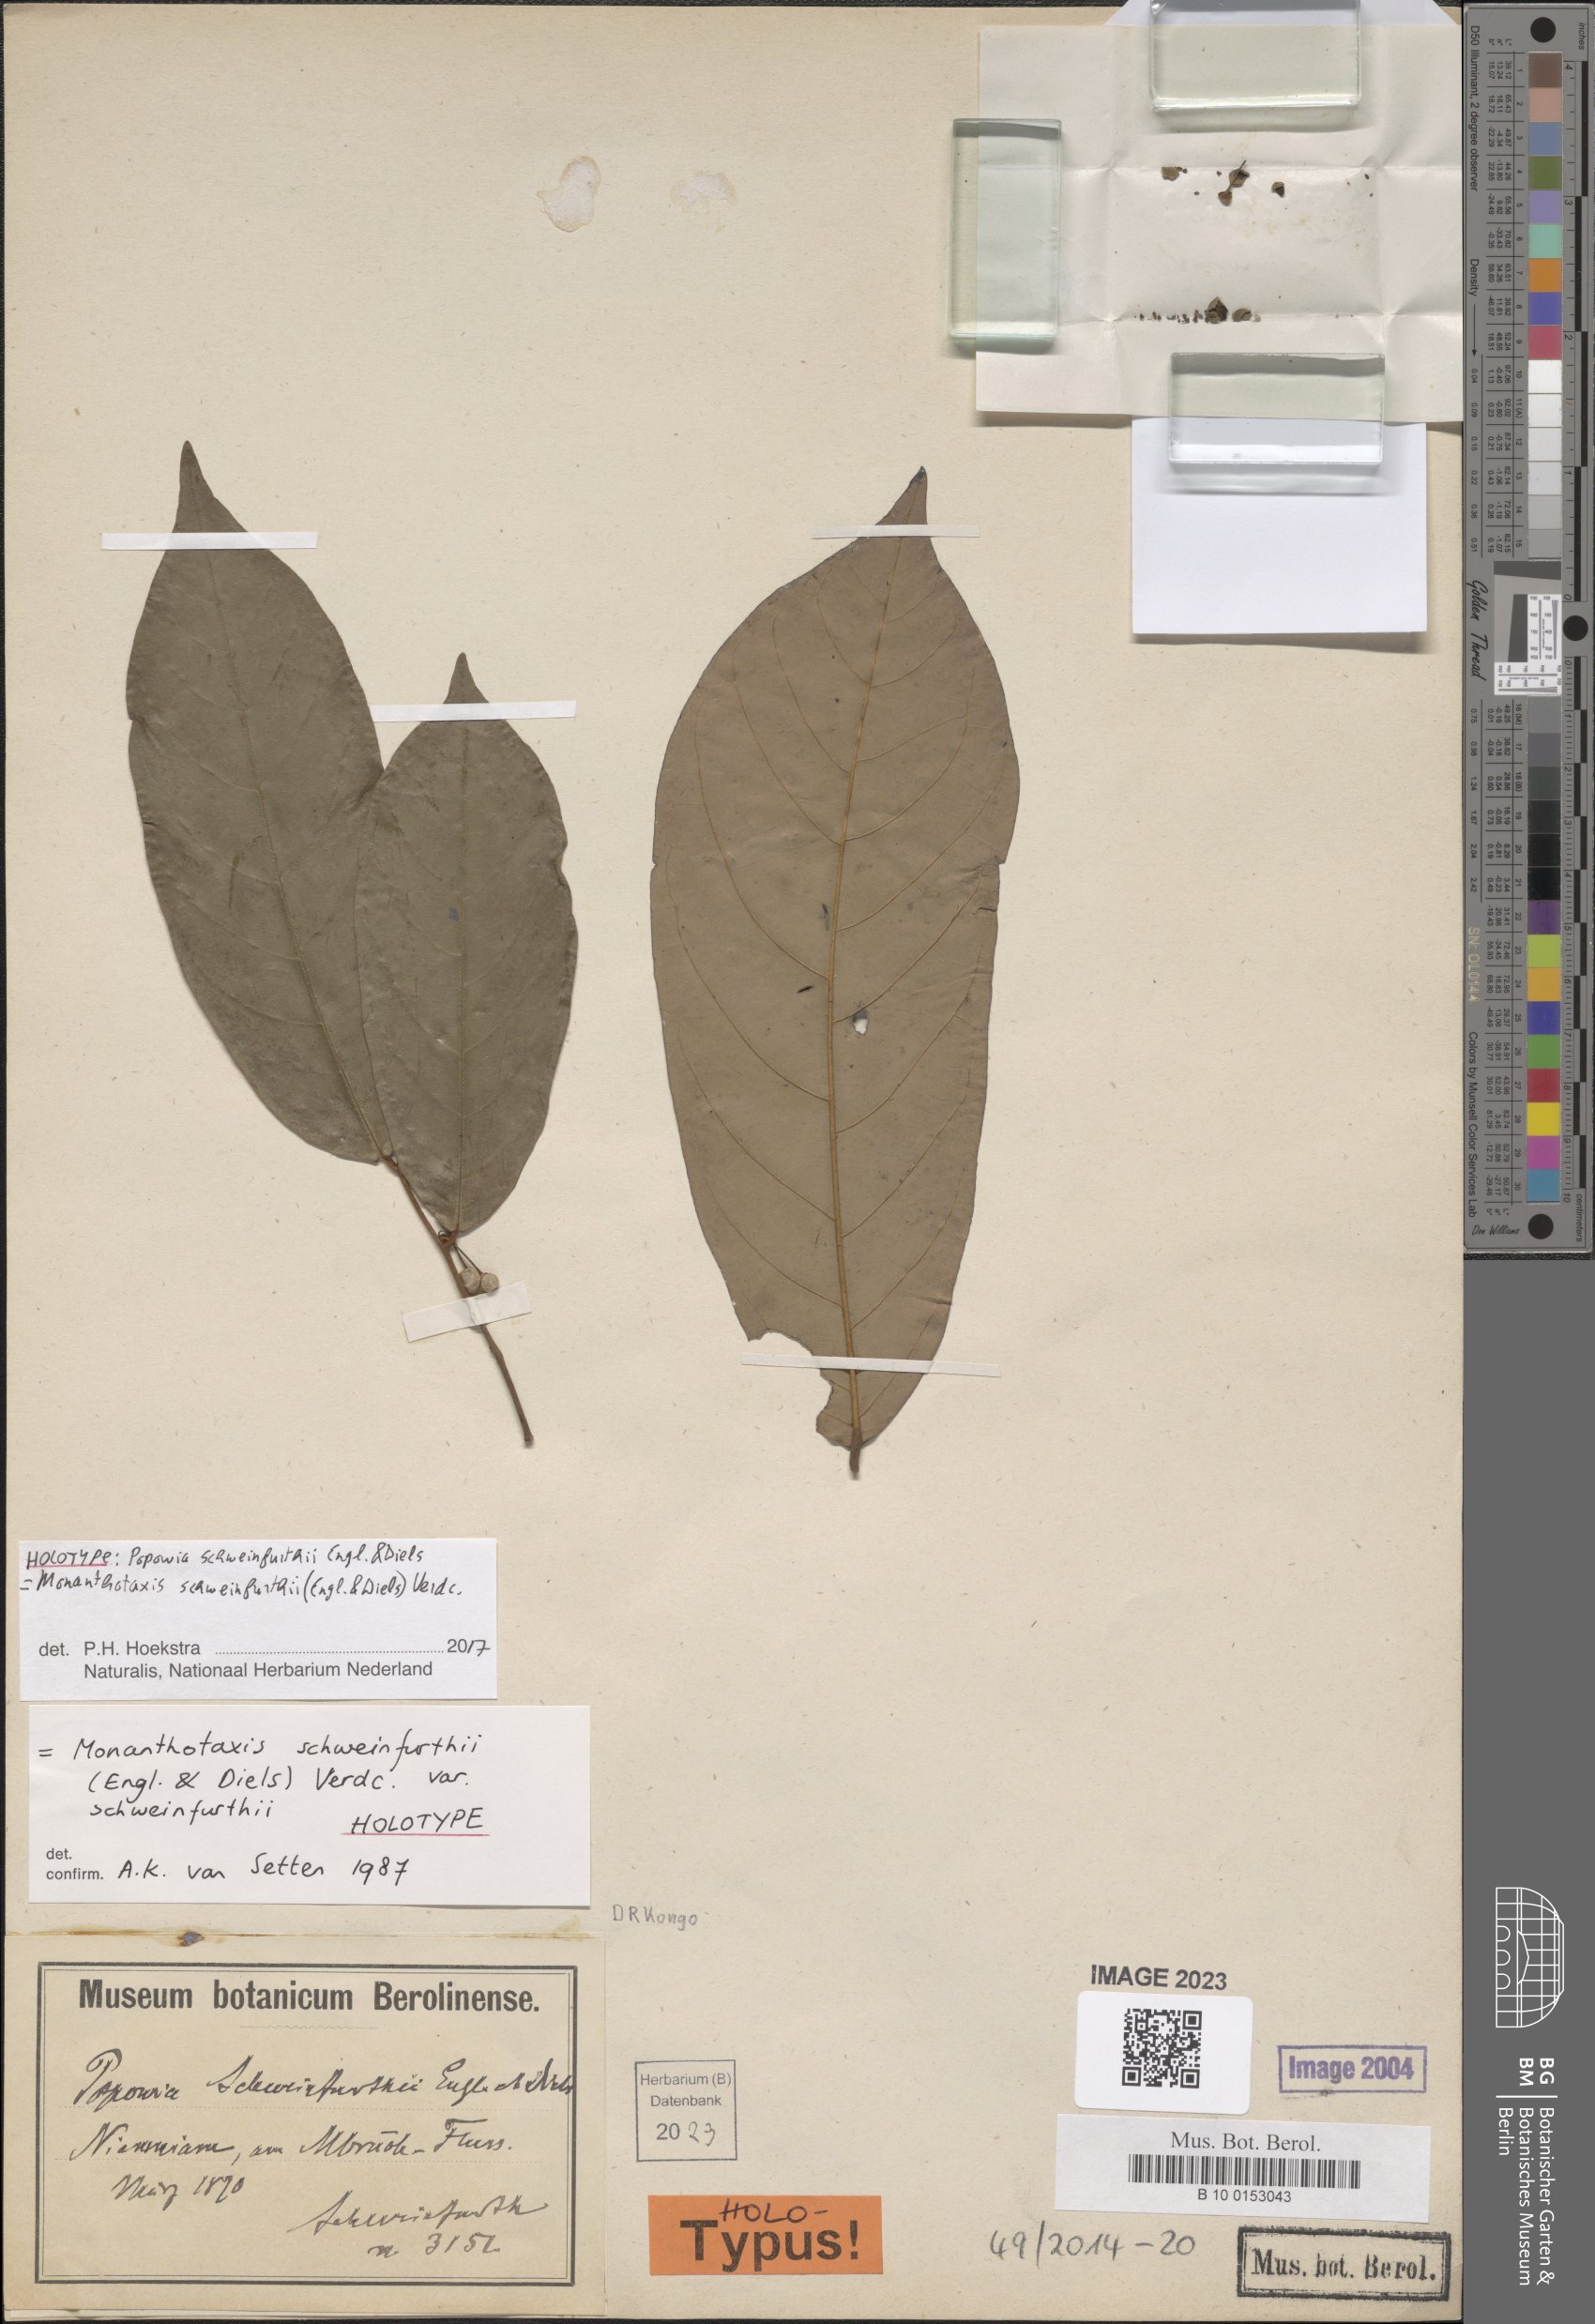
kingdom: Plantae
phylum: Tracheophyta
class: Magnoliopsida
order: Magnoliales
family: Annonaceae
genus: Monanthotaxis
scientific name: Monanthotaxis schweinfurthii
